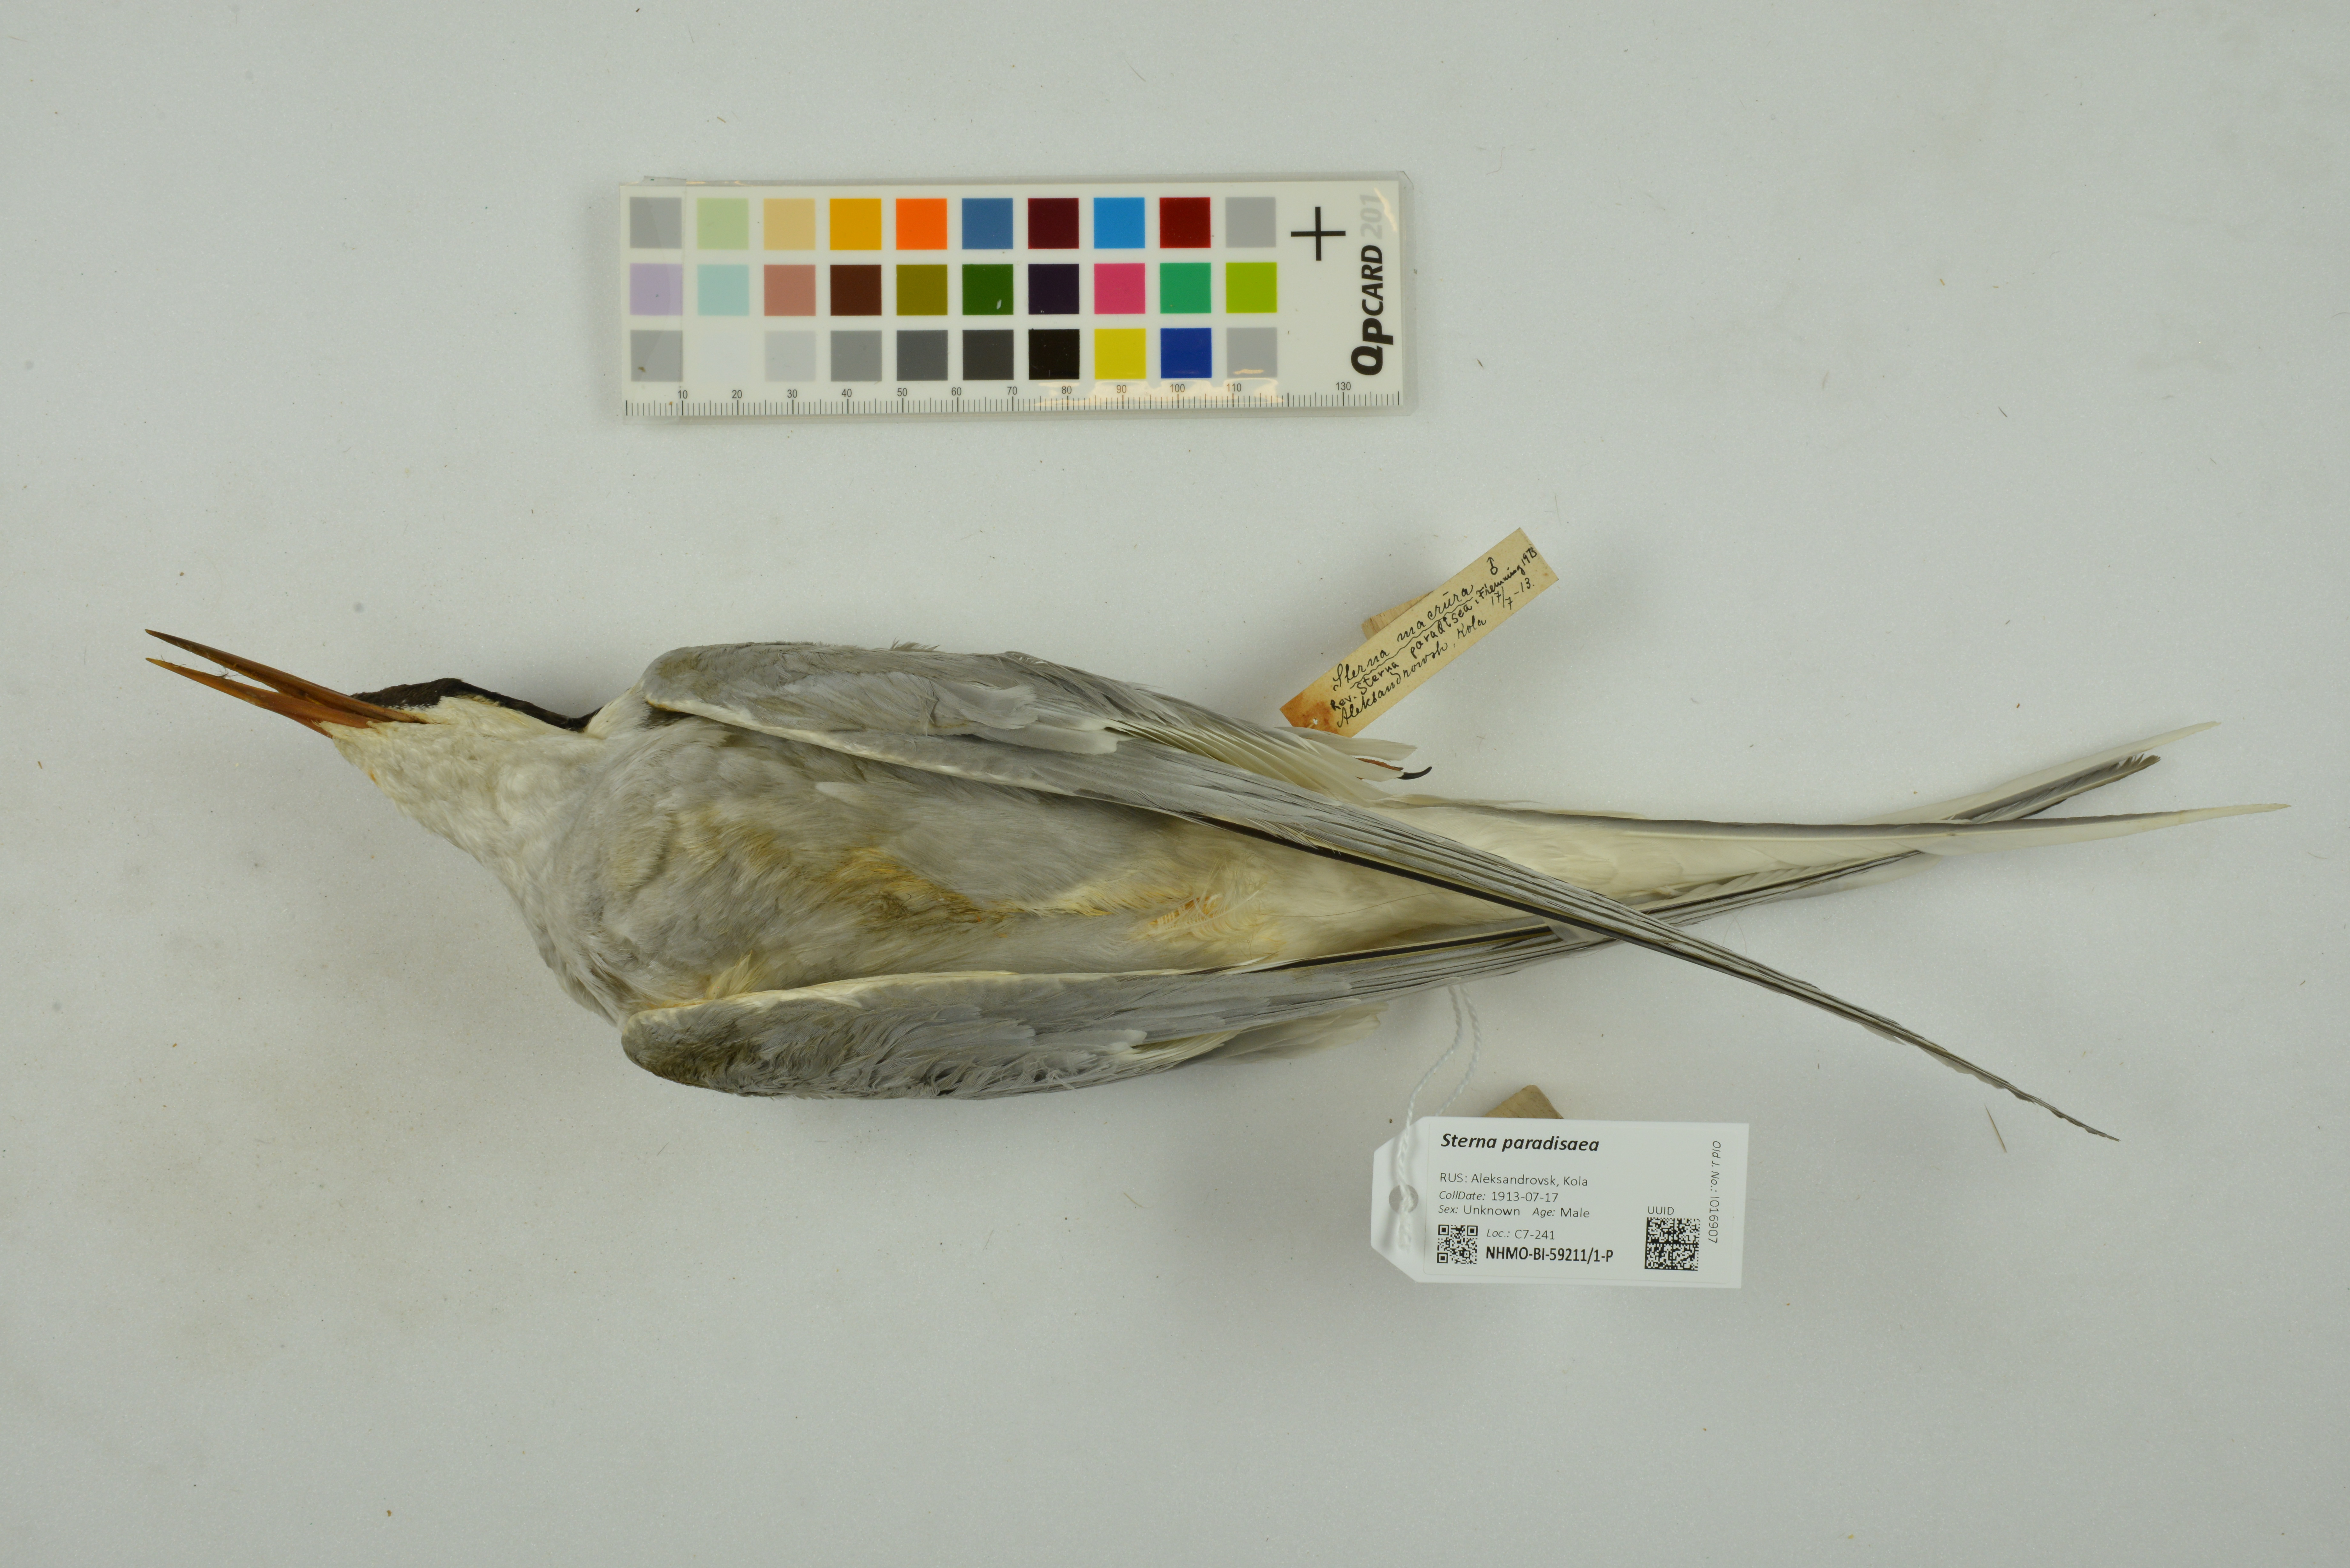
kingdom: Animalia
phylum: Chordata
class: Aves
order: Charadriiformes
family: Laridae
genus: Sterna
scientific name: Sterna paradisaea
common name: Arctic tern
